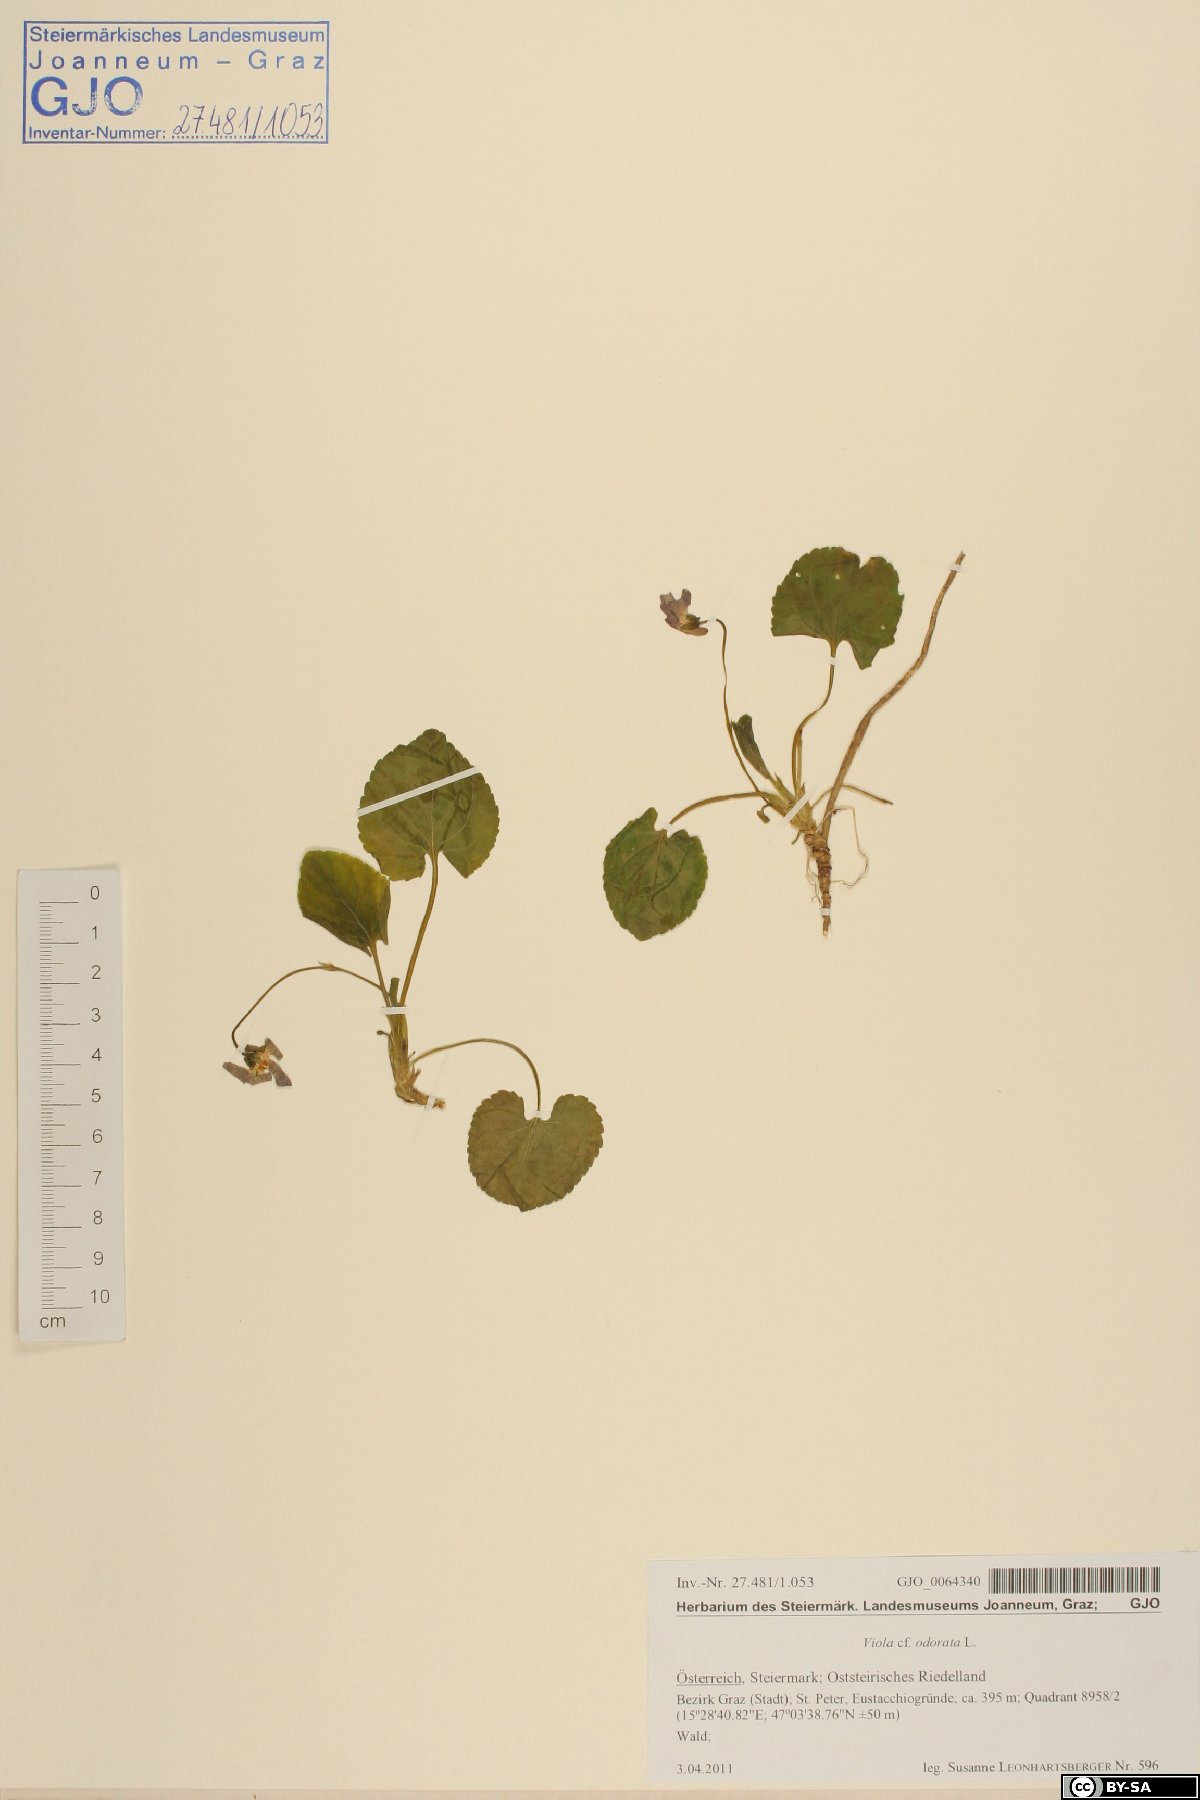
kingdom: Plantae
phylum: Tracheophyta
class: Magnoliopsida
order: Malpighiales
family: Violaceae
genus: Viola
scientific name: Viola odorata
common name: Sweet violet
